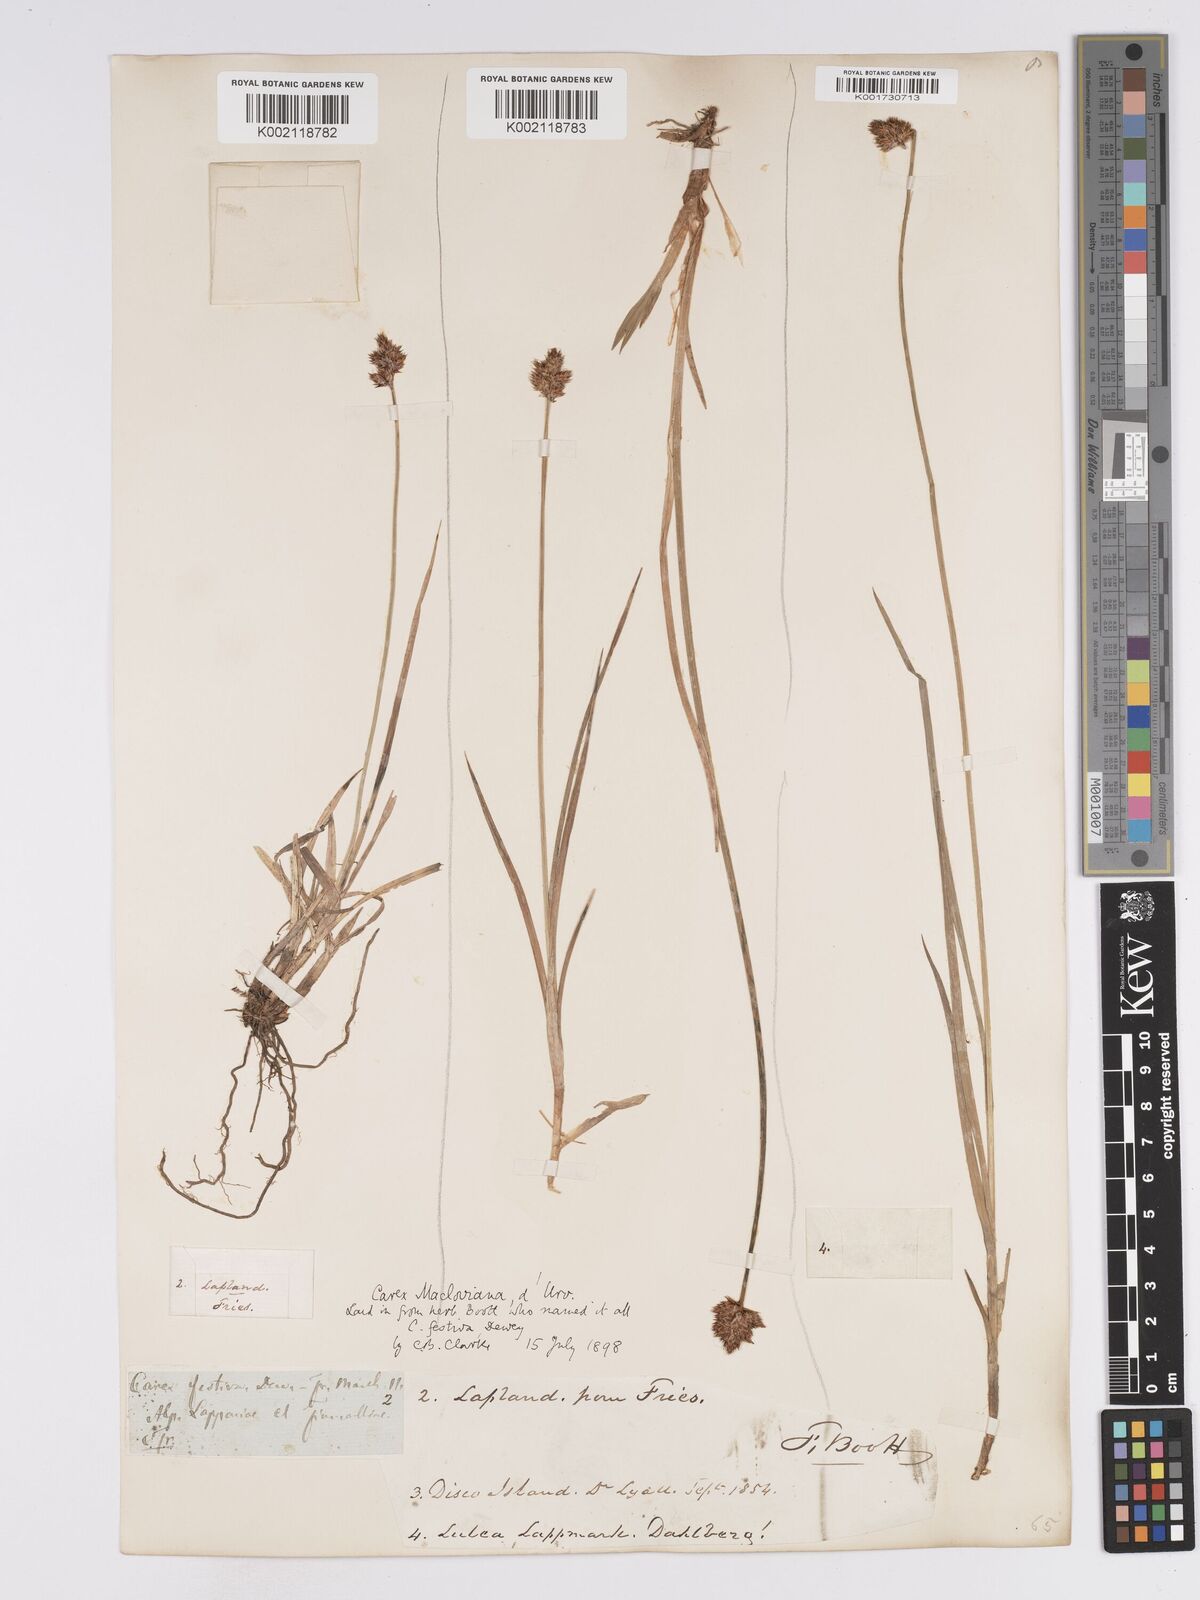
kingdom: Plantae
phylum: Tracheophyta
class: Liliopsida
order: Poales
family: Cyperaceae
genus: Carex
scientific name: Carex macloviana
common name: Falkland island sedge
